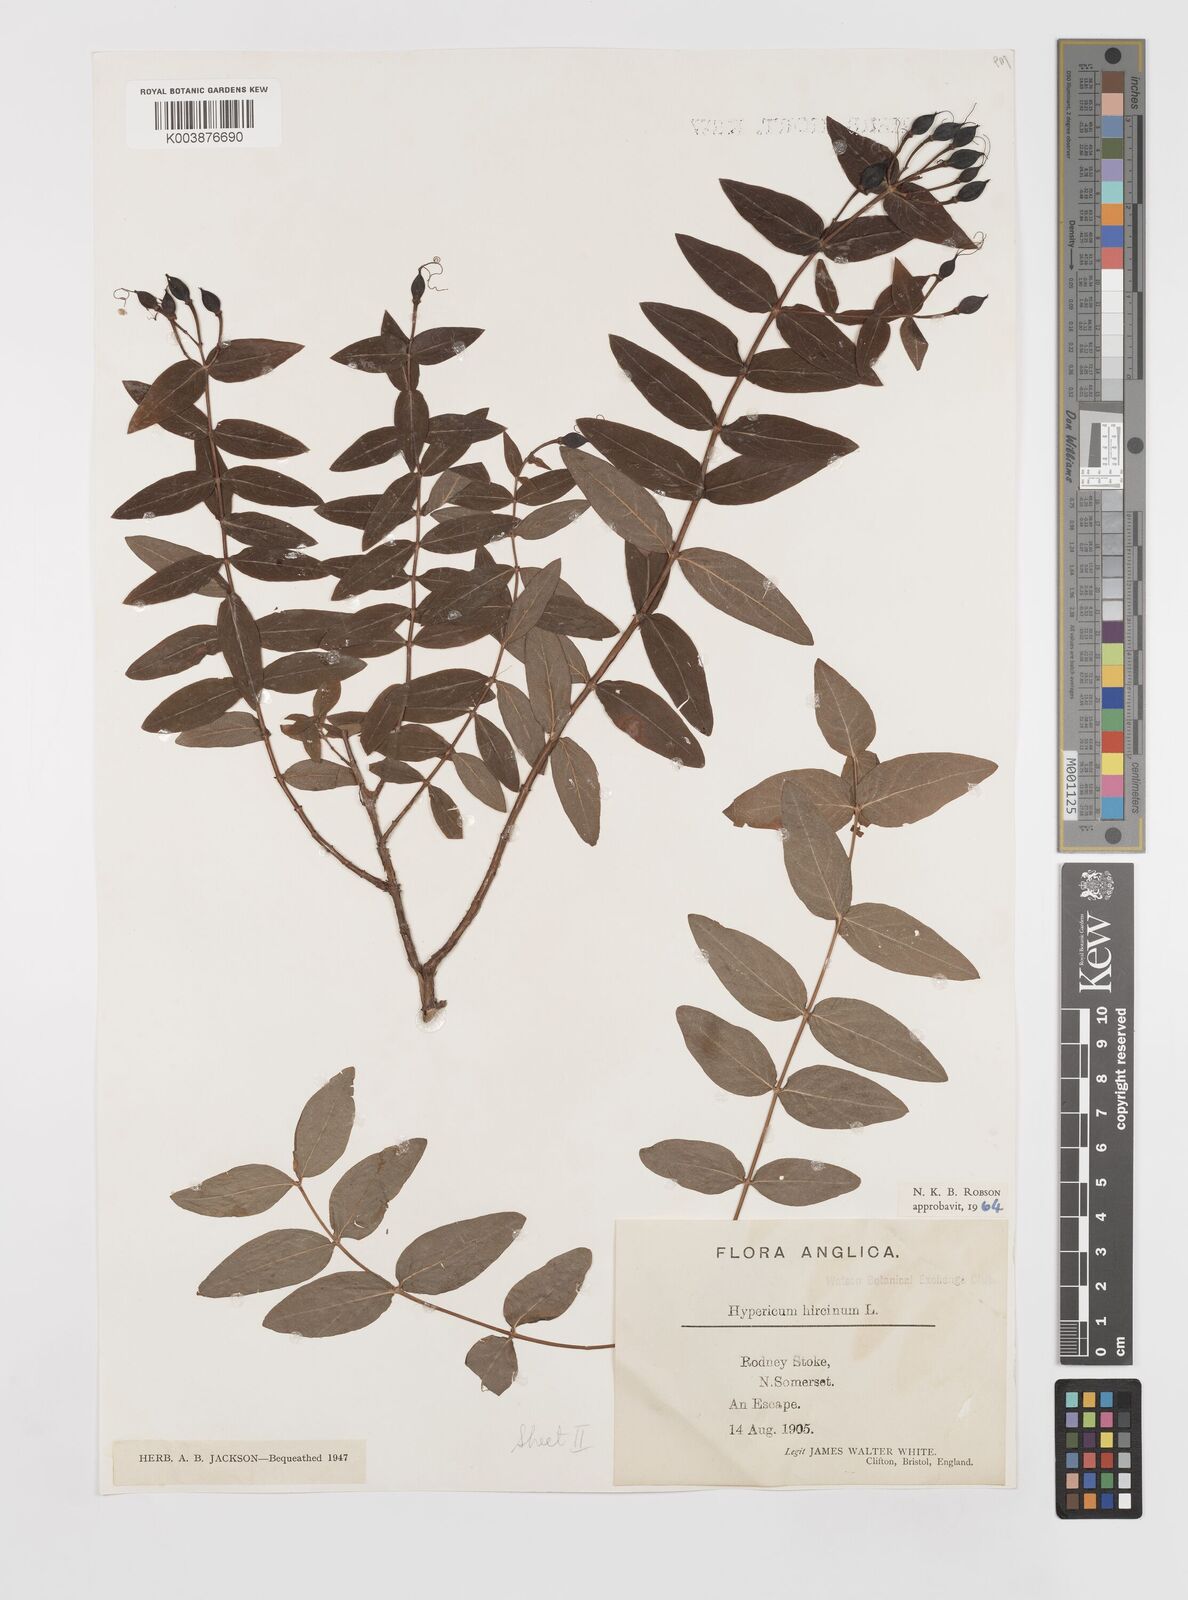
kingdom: Plantae
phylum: Tracheophyta
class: Magnoliopsida
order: Malpighiales
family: Hypericaceae
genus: Hypericum
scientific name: Hypericum hircinum
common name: Stinking tutsan
